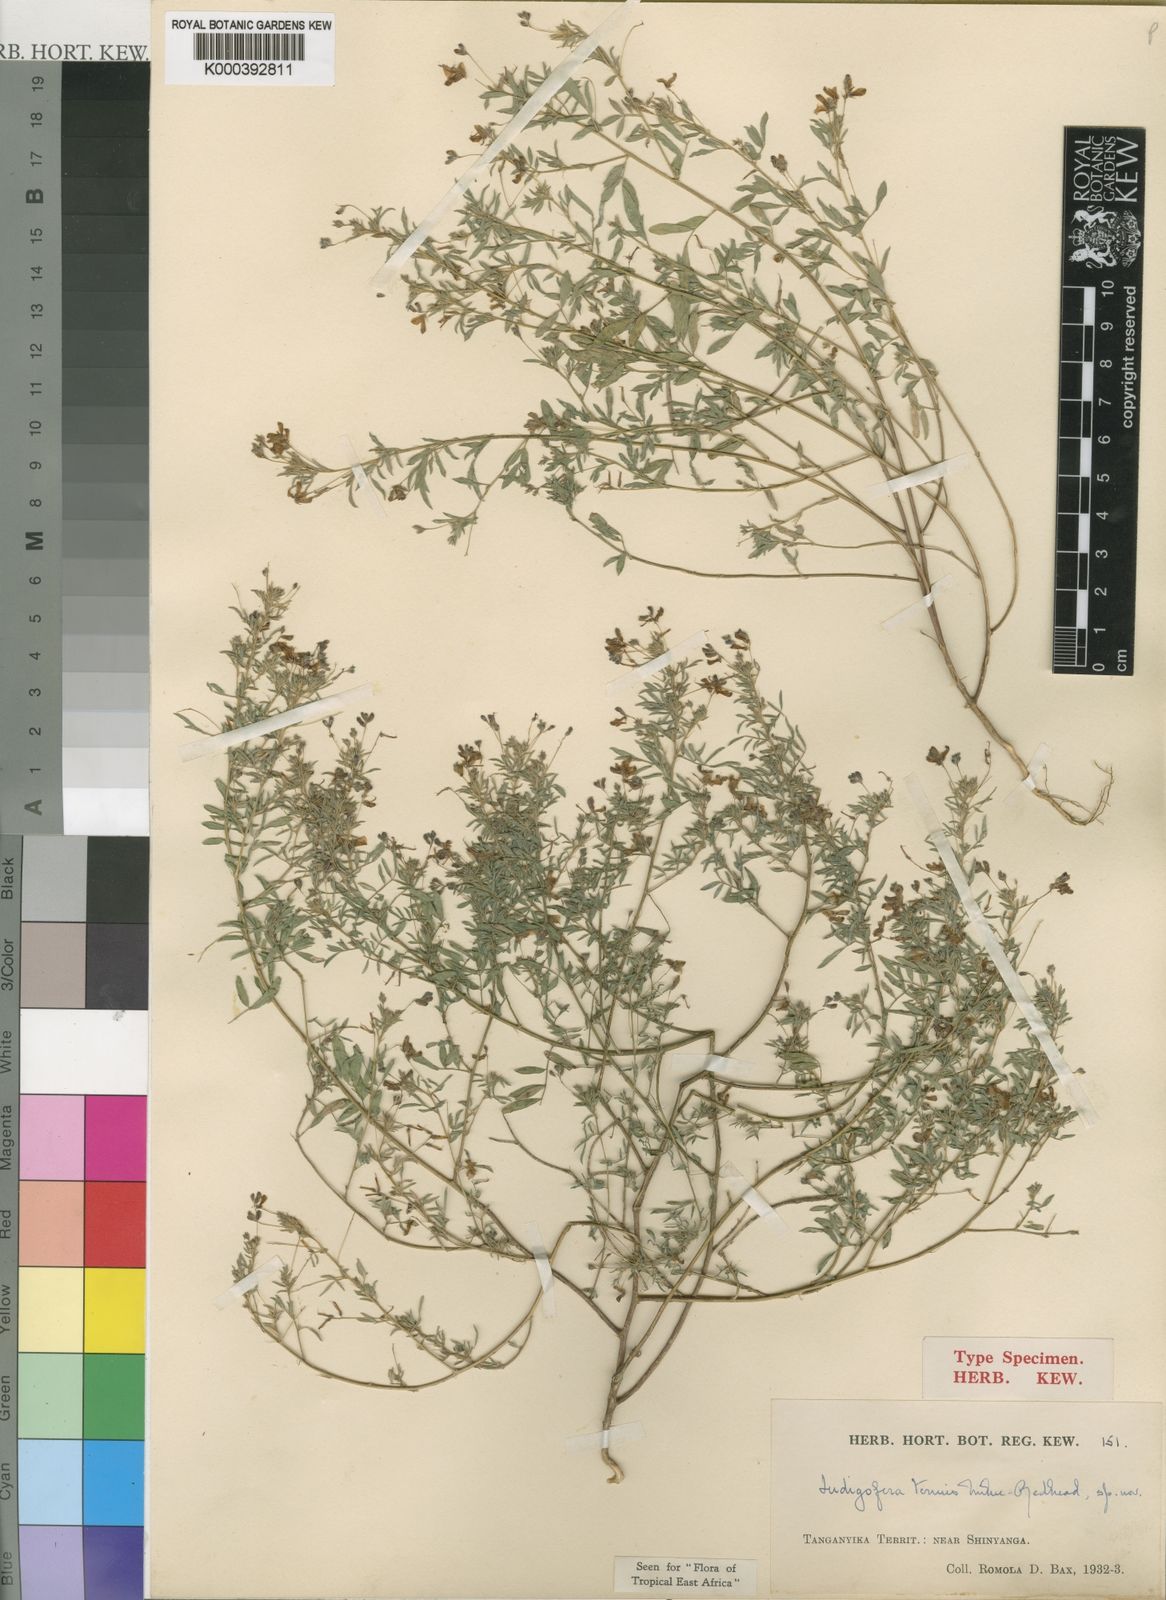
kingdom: Plantae
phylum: Tracheophyta
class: Magnoliopsida
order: Fabales
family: Fabaceae
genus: Indigofera
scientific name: Indigofera dissitiflora
